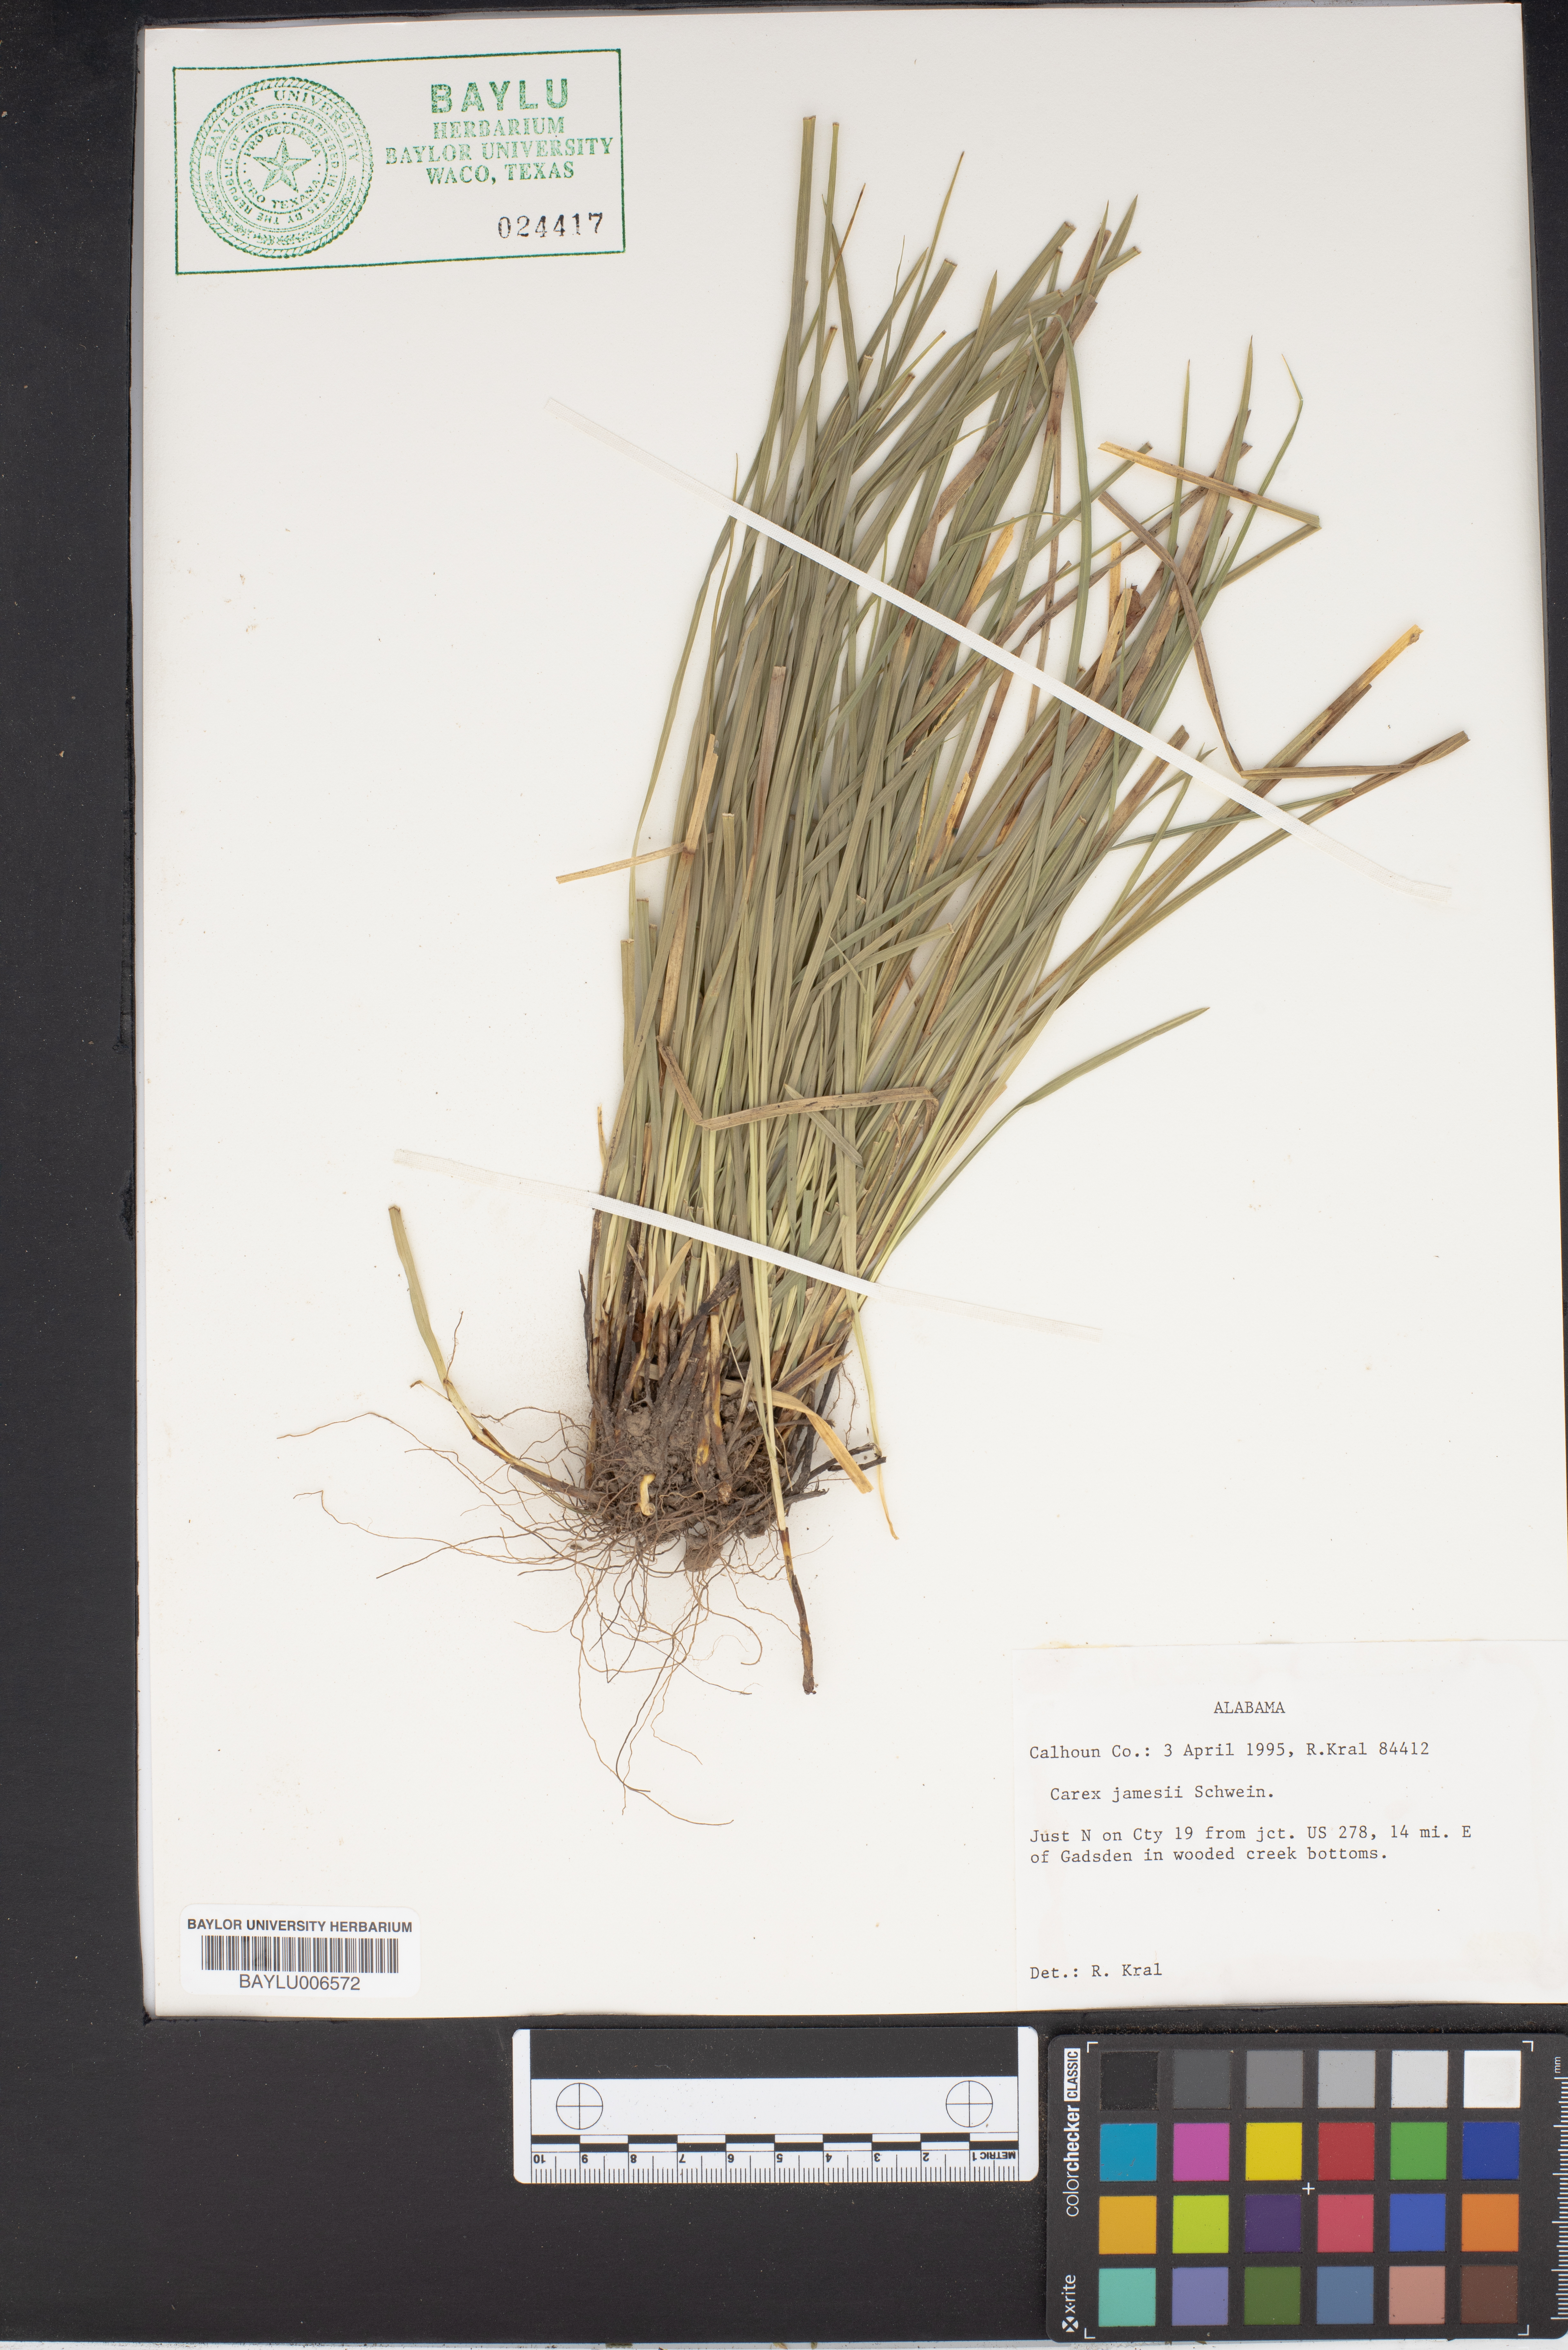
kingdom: Plantae
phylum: Tracheophyta
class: Liliopsida
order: Poales
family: Cyperaceae
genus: Carex
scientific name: Carex jamesii
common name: Grass sedge
